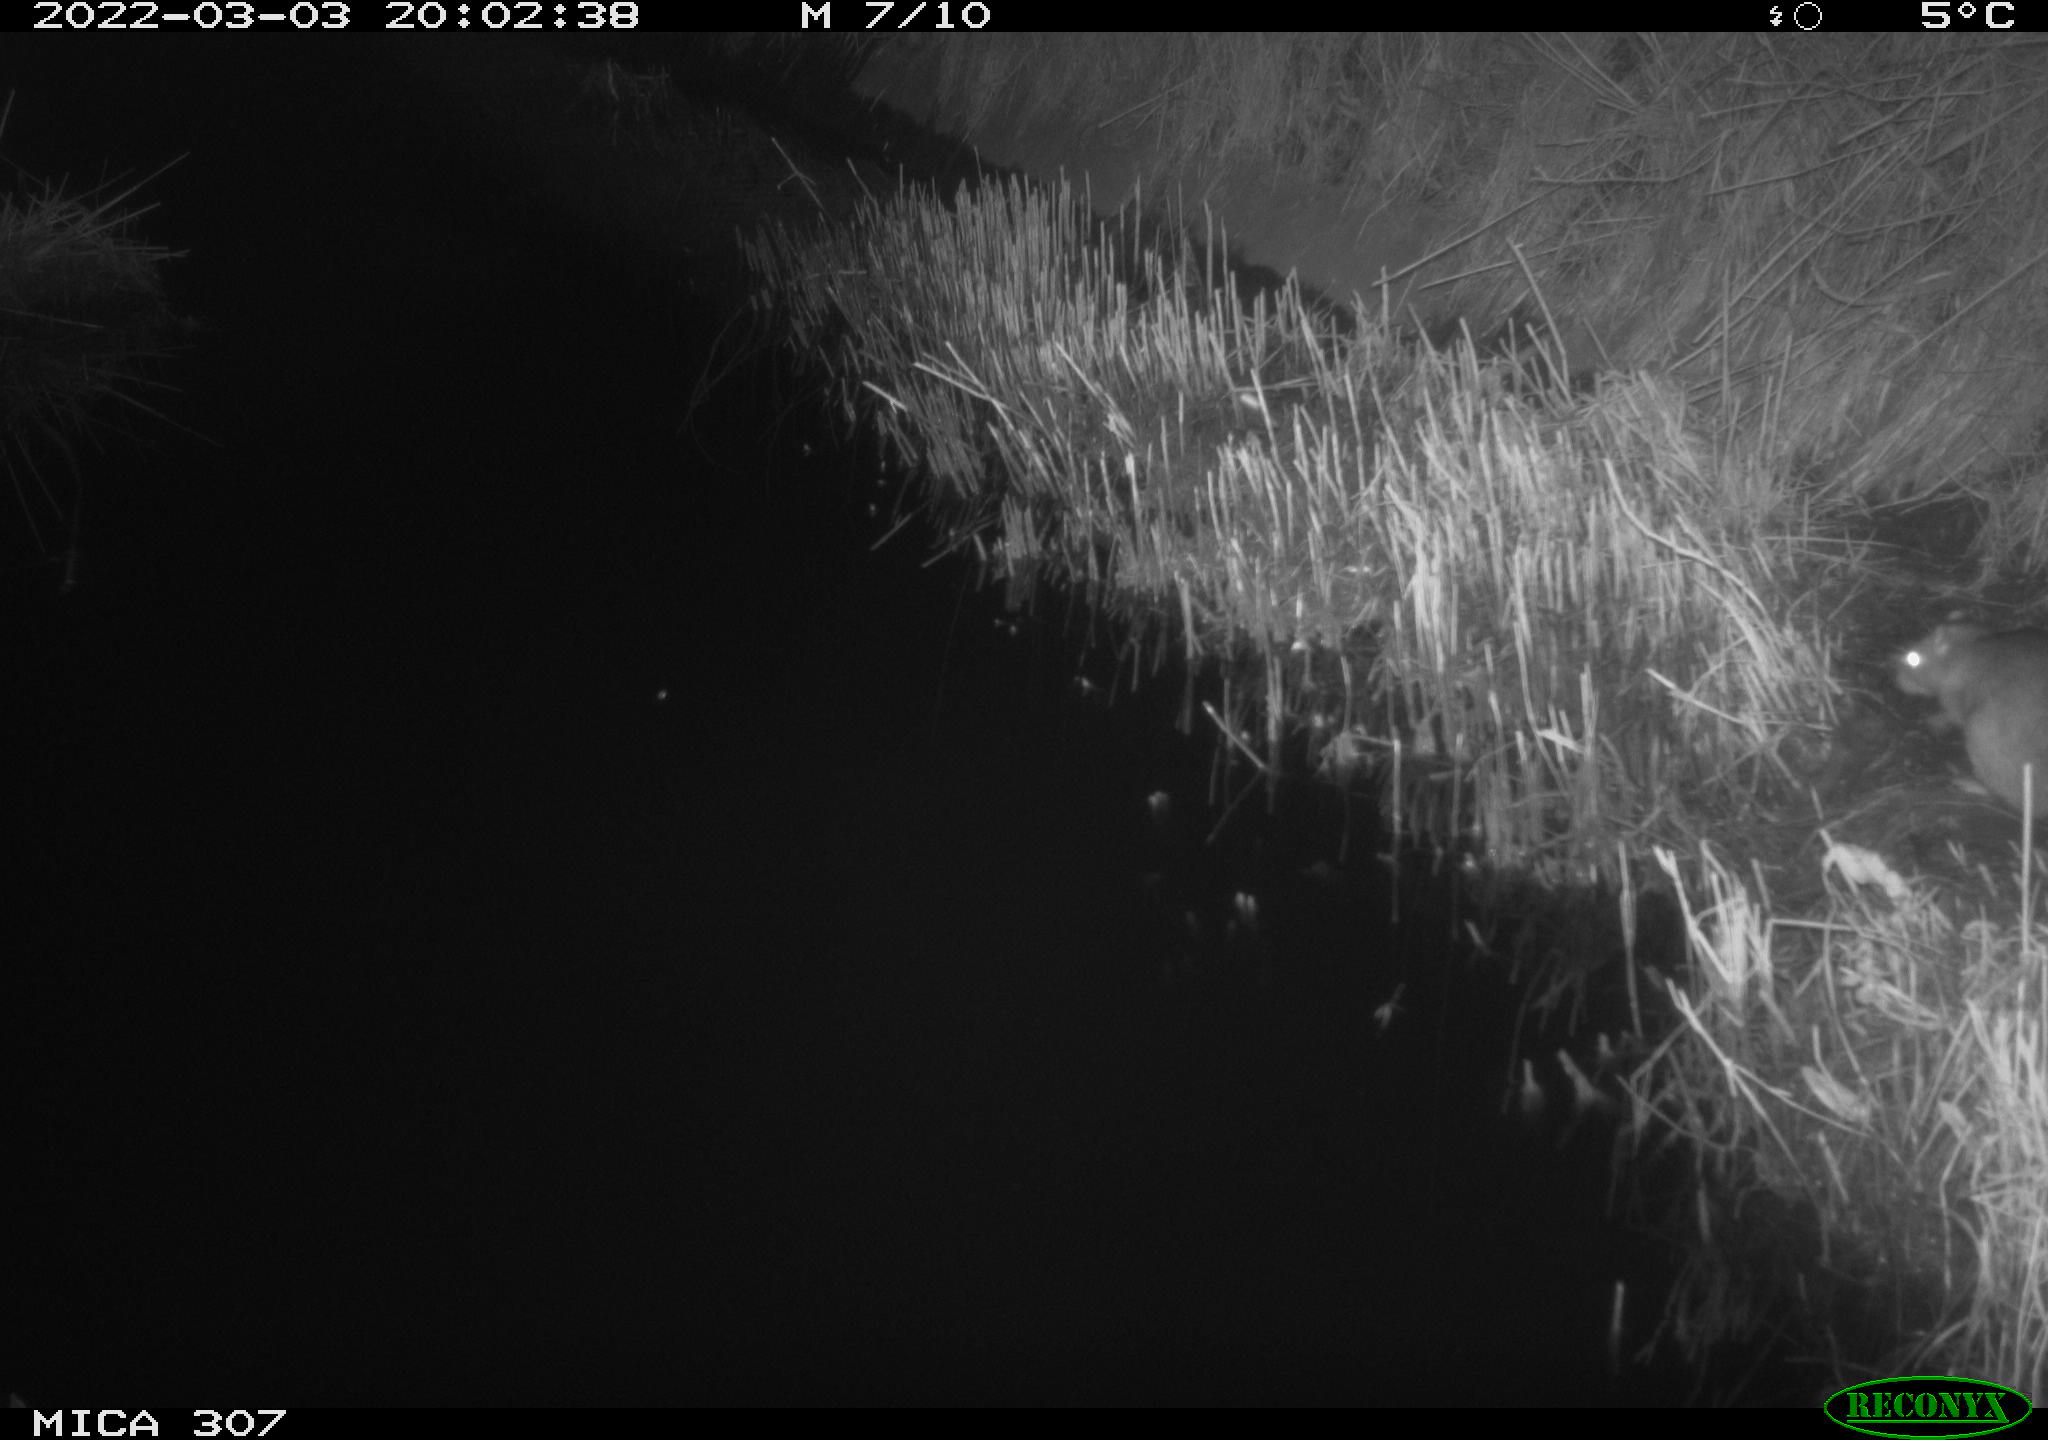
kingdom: Animalia
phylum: Chordata
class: Mammalia
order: Rodentia
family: Muridae
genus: Rattus
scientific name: Rattus norvegicus
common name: Brown rat
